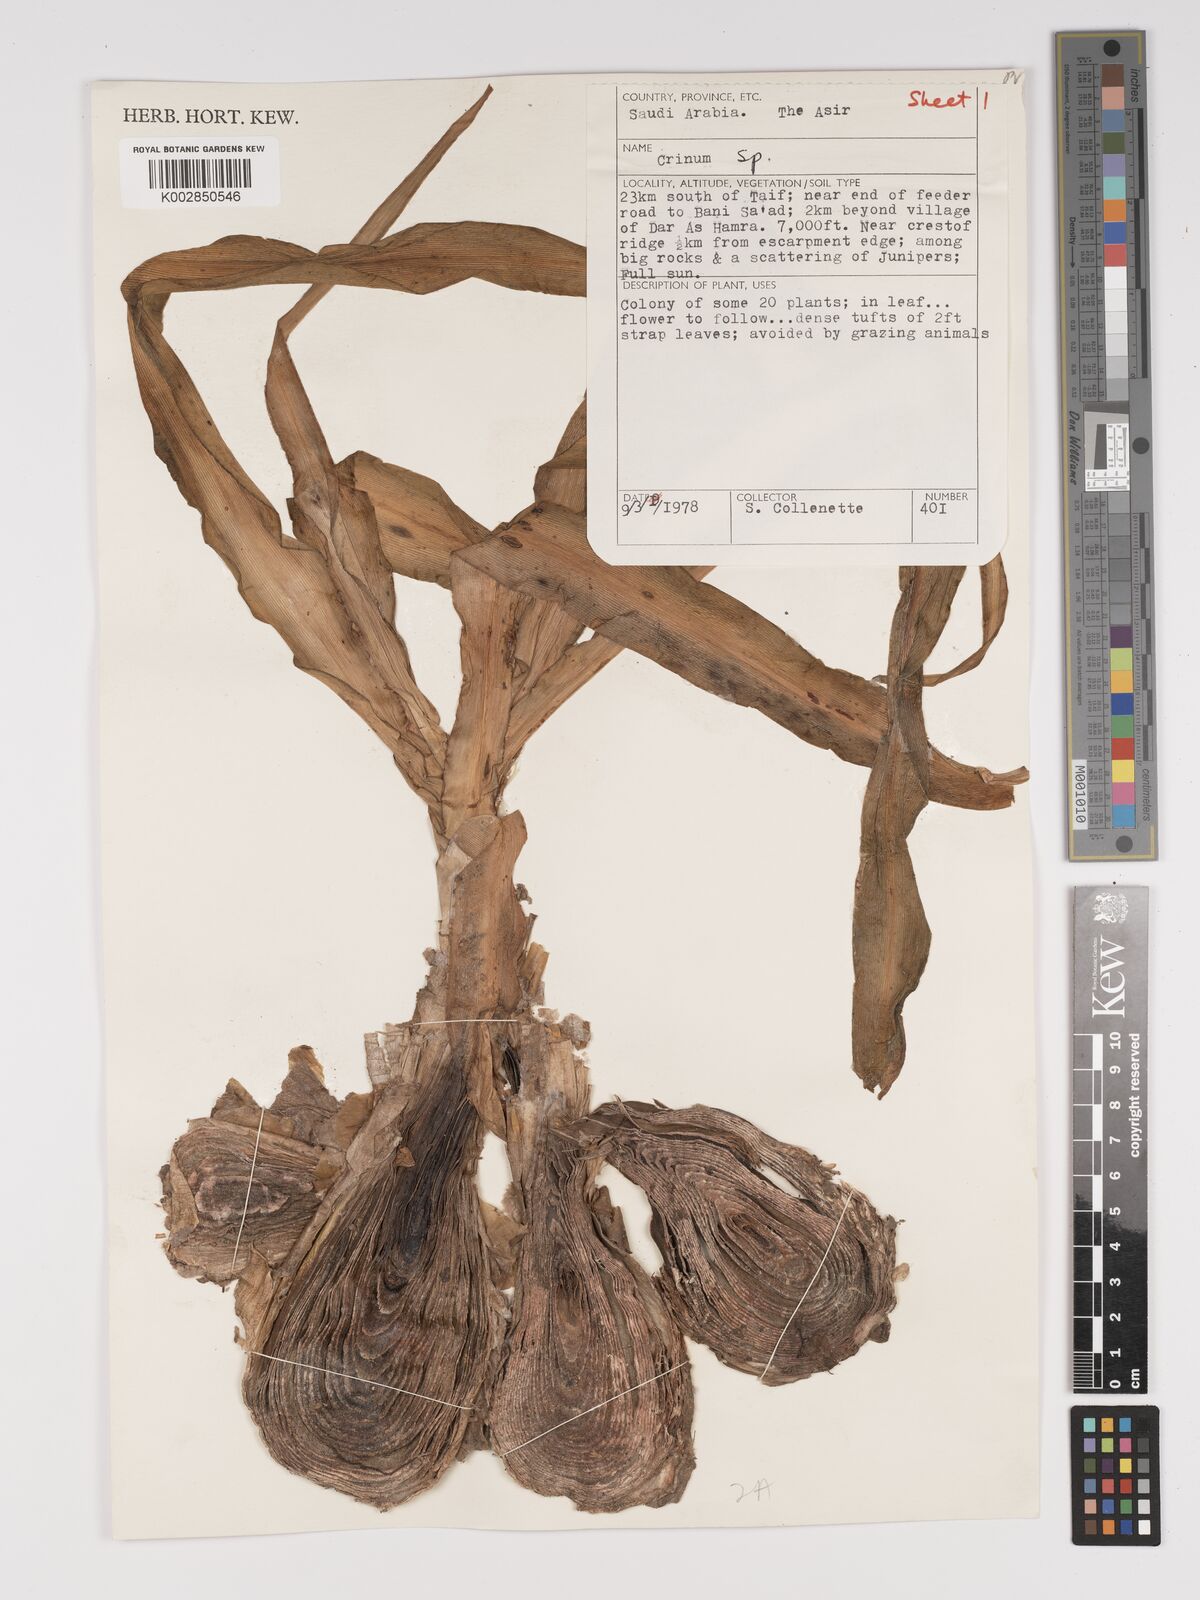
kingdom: Plantae
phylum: Tracheophyta
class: Liliopsida
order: Asparagales
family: Amaryllidaceae
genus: Crinum
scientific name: Crinum
